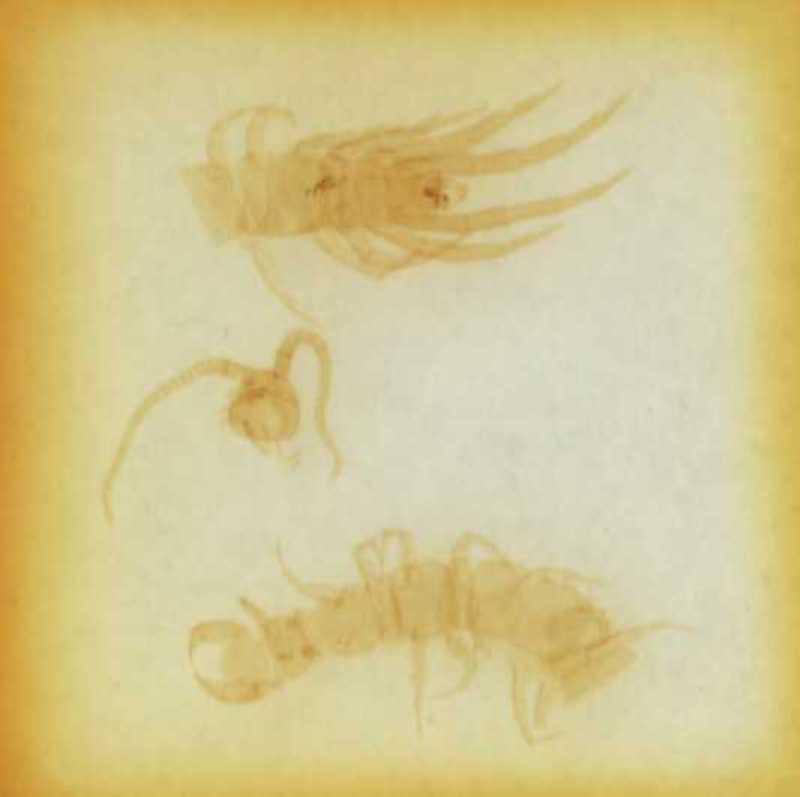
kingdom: Animalia
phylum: Arthropoda
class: Chilopoda
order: Lithobiomorpha
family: Lithobiidae
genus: Lithobius
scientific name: Lithobius erythrocephalus
